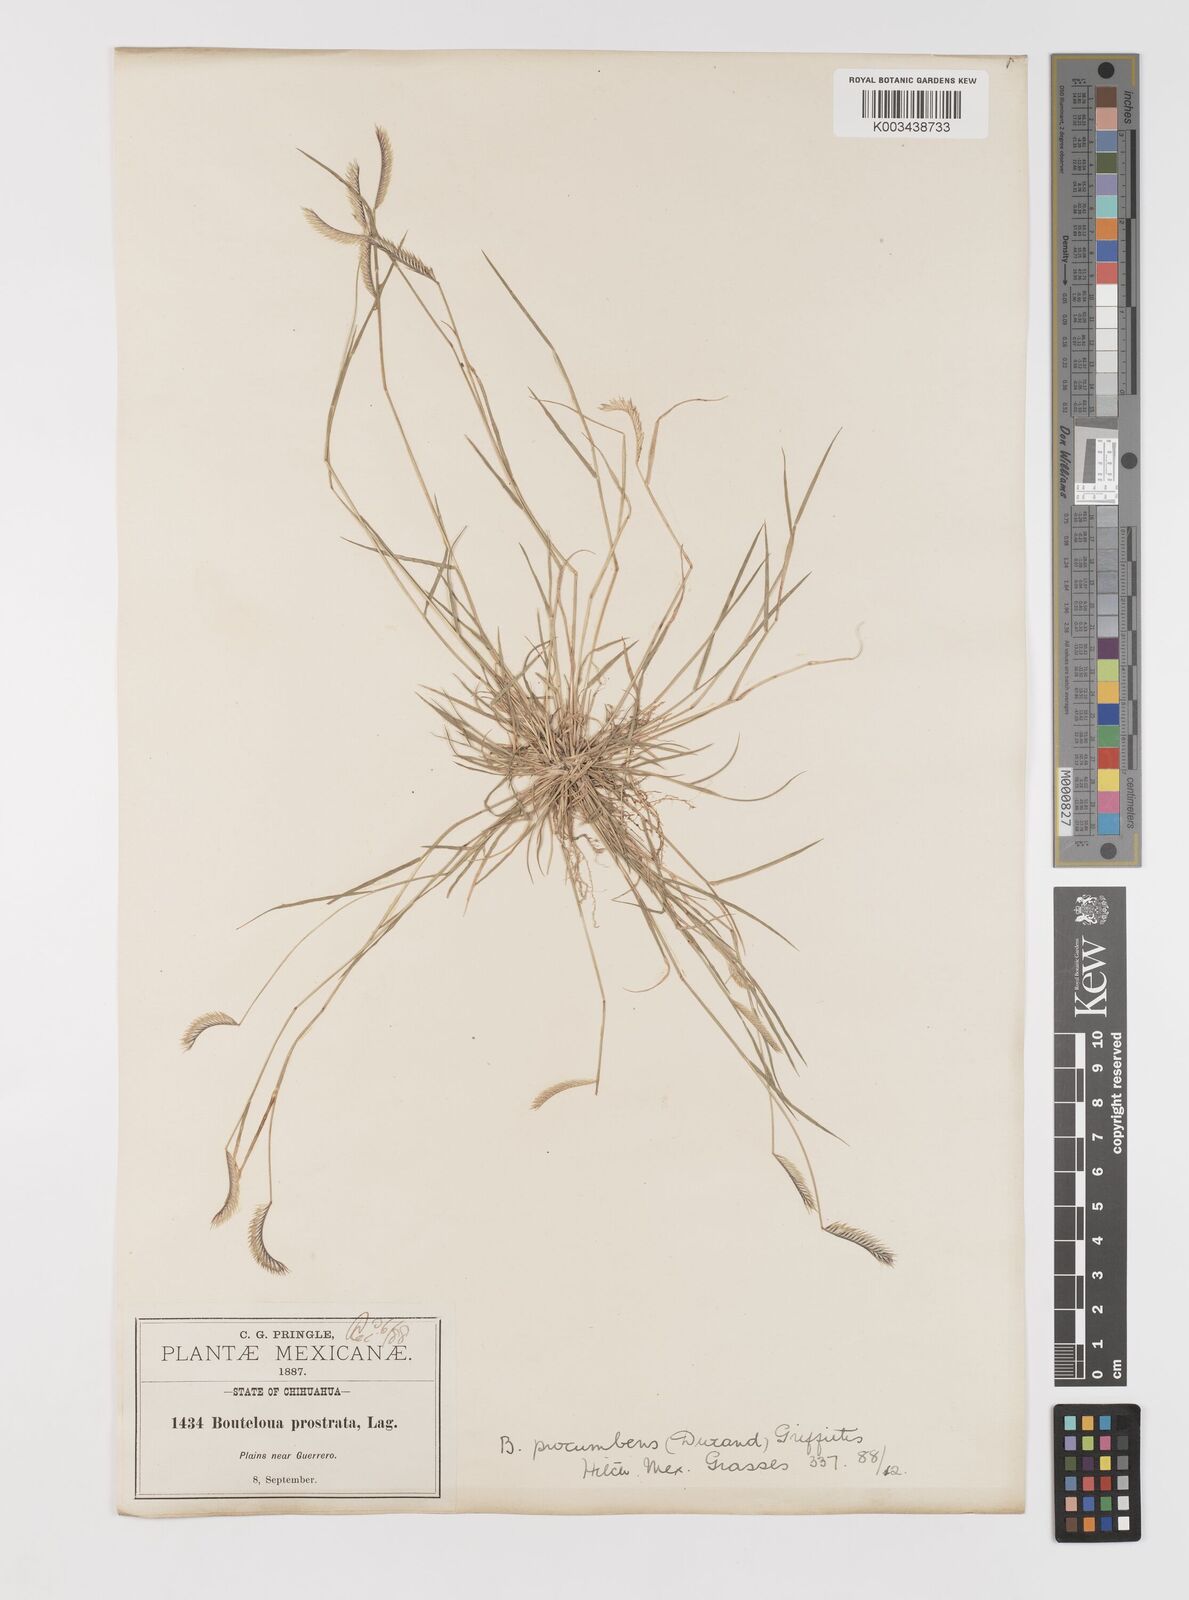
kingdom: Plantae
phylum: Tracheophyta
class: Liliopsida
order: Poales
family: Poaceae
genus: Bouteloua
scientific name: Bouteloua simplex
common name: Mat grama
